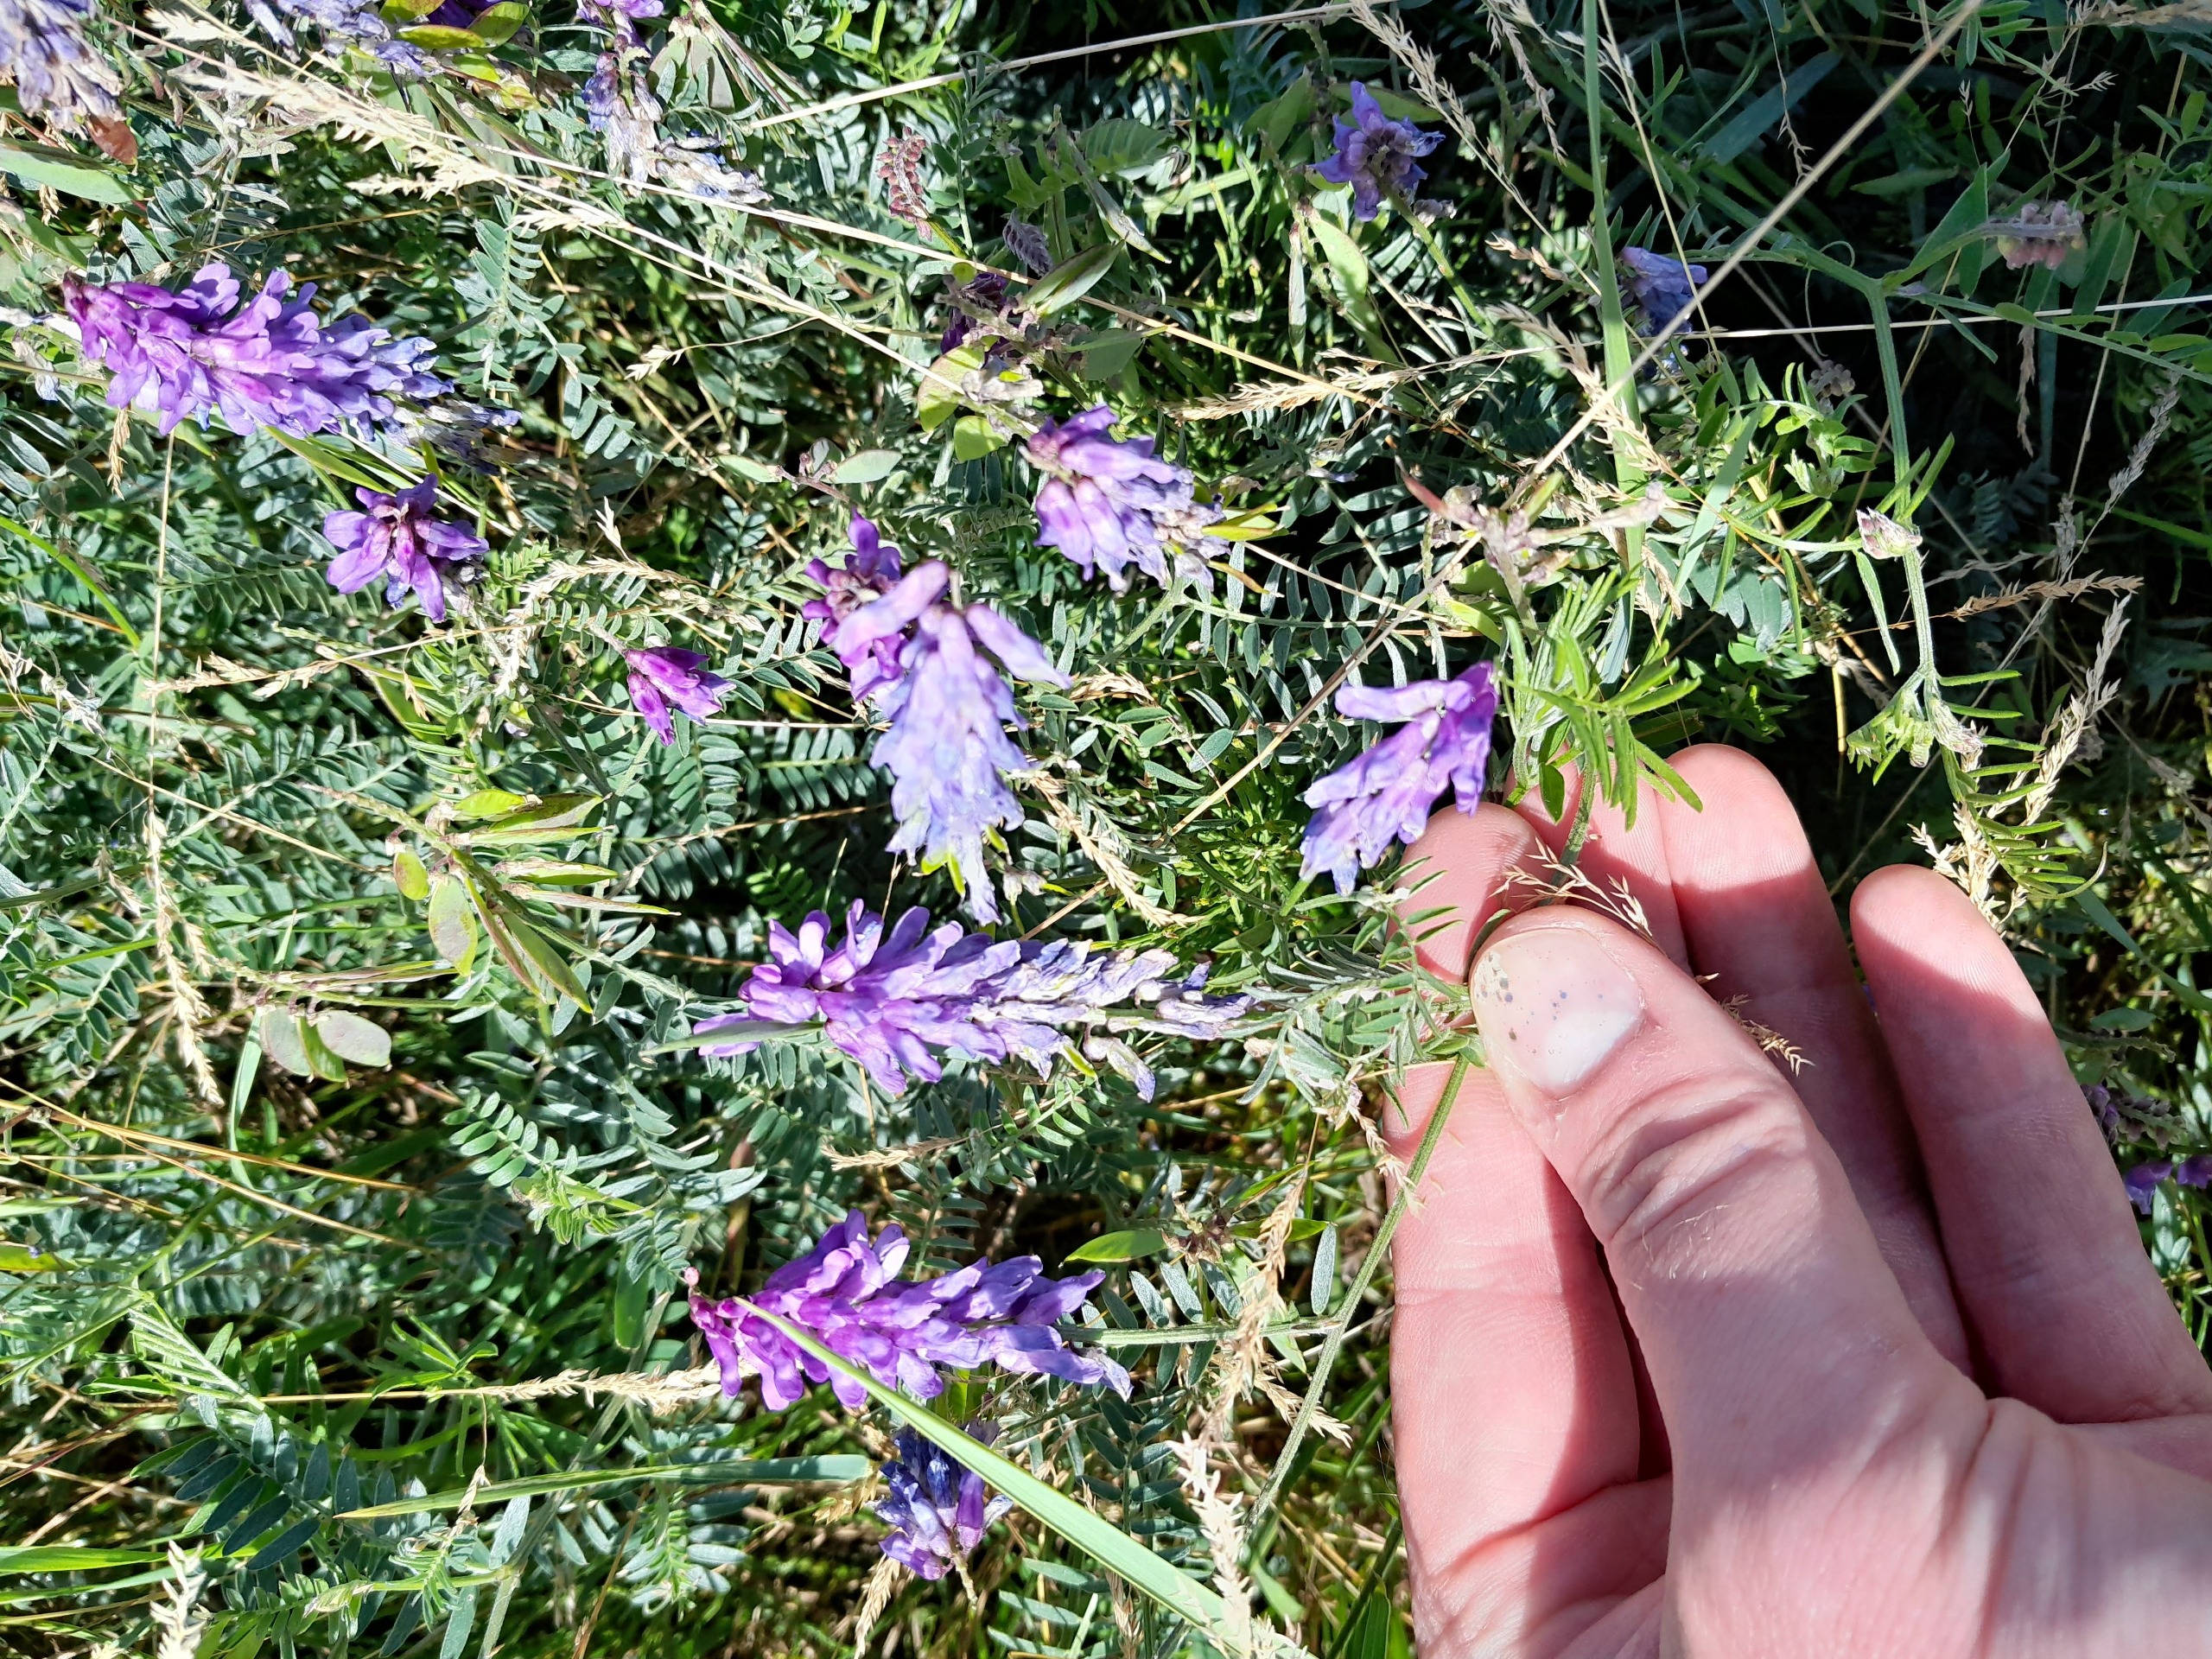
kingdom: Plantae
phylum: Tracheophyta
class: Magnoliopsida
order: Fabales
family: Fabaceae
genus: Vicia
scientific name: Vicia cracca
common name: Muse-vikke
